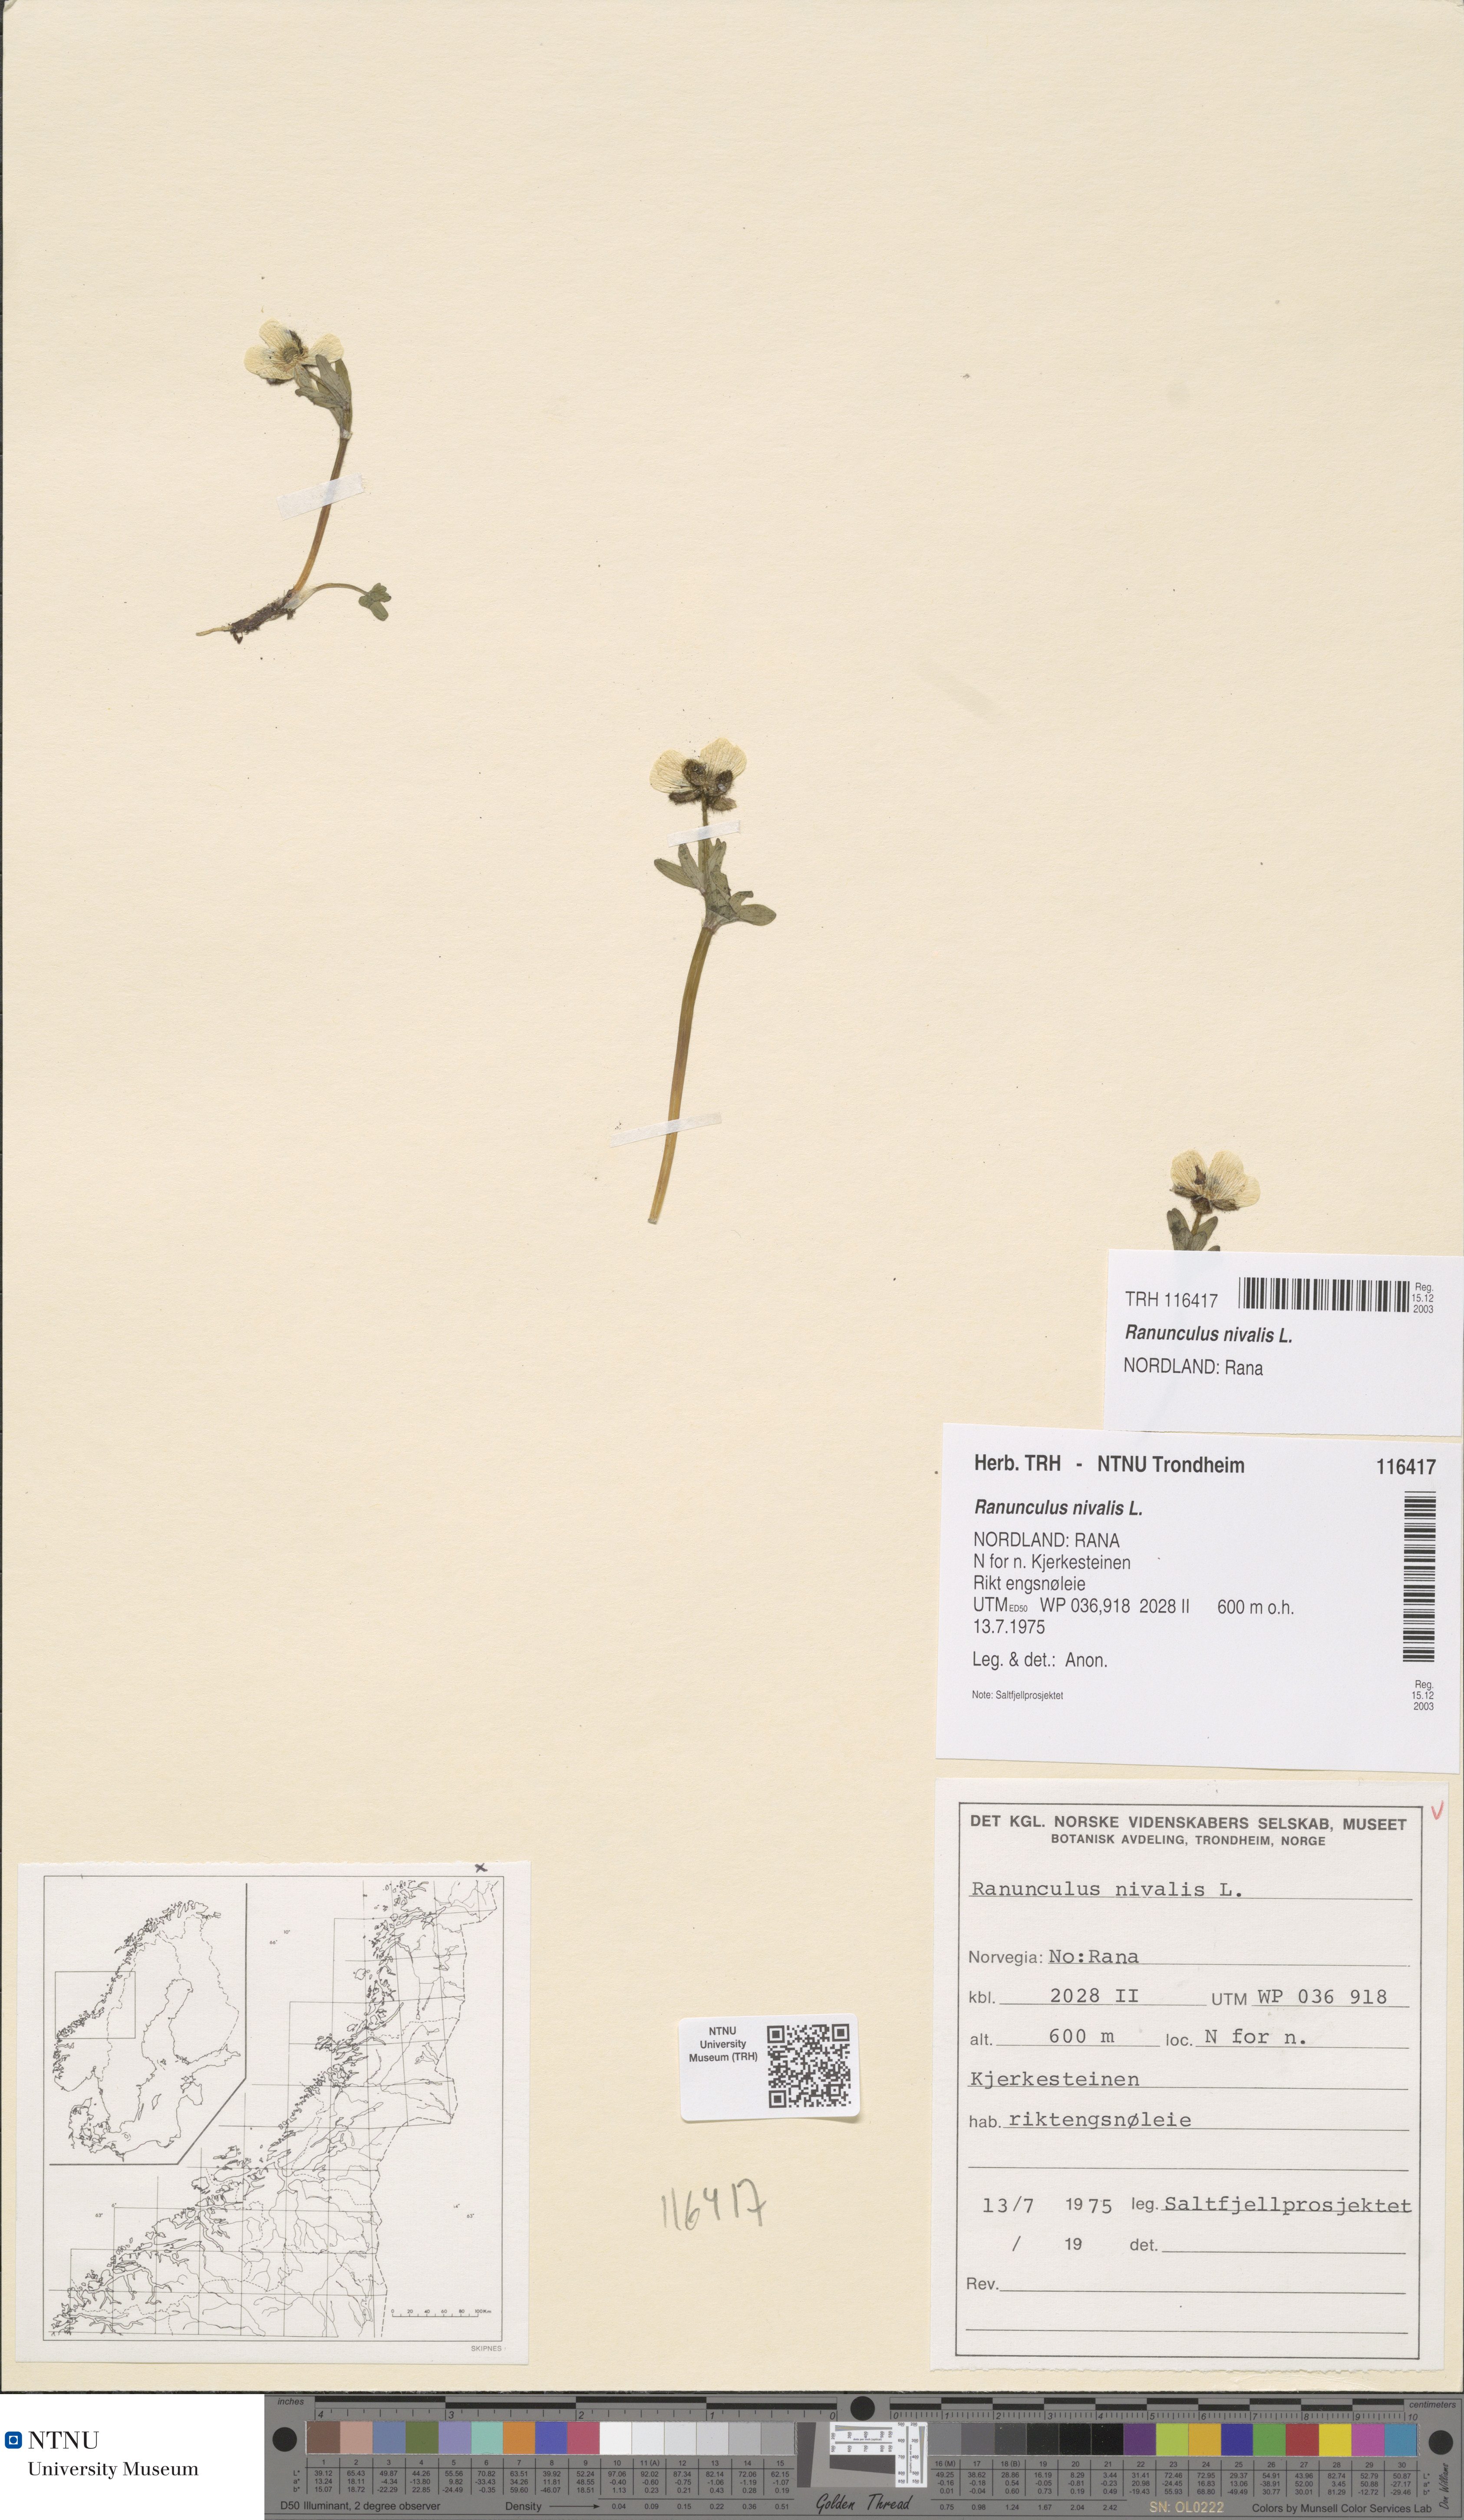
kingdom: Plantae
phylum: Tracheophyta
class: Magnoliopsida
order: Ranunculales
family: Ranunculaceae
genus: Ranunculus
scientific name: Ranunculus nivalis
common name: Snow buttercup
